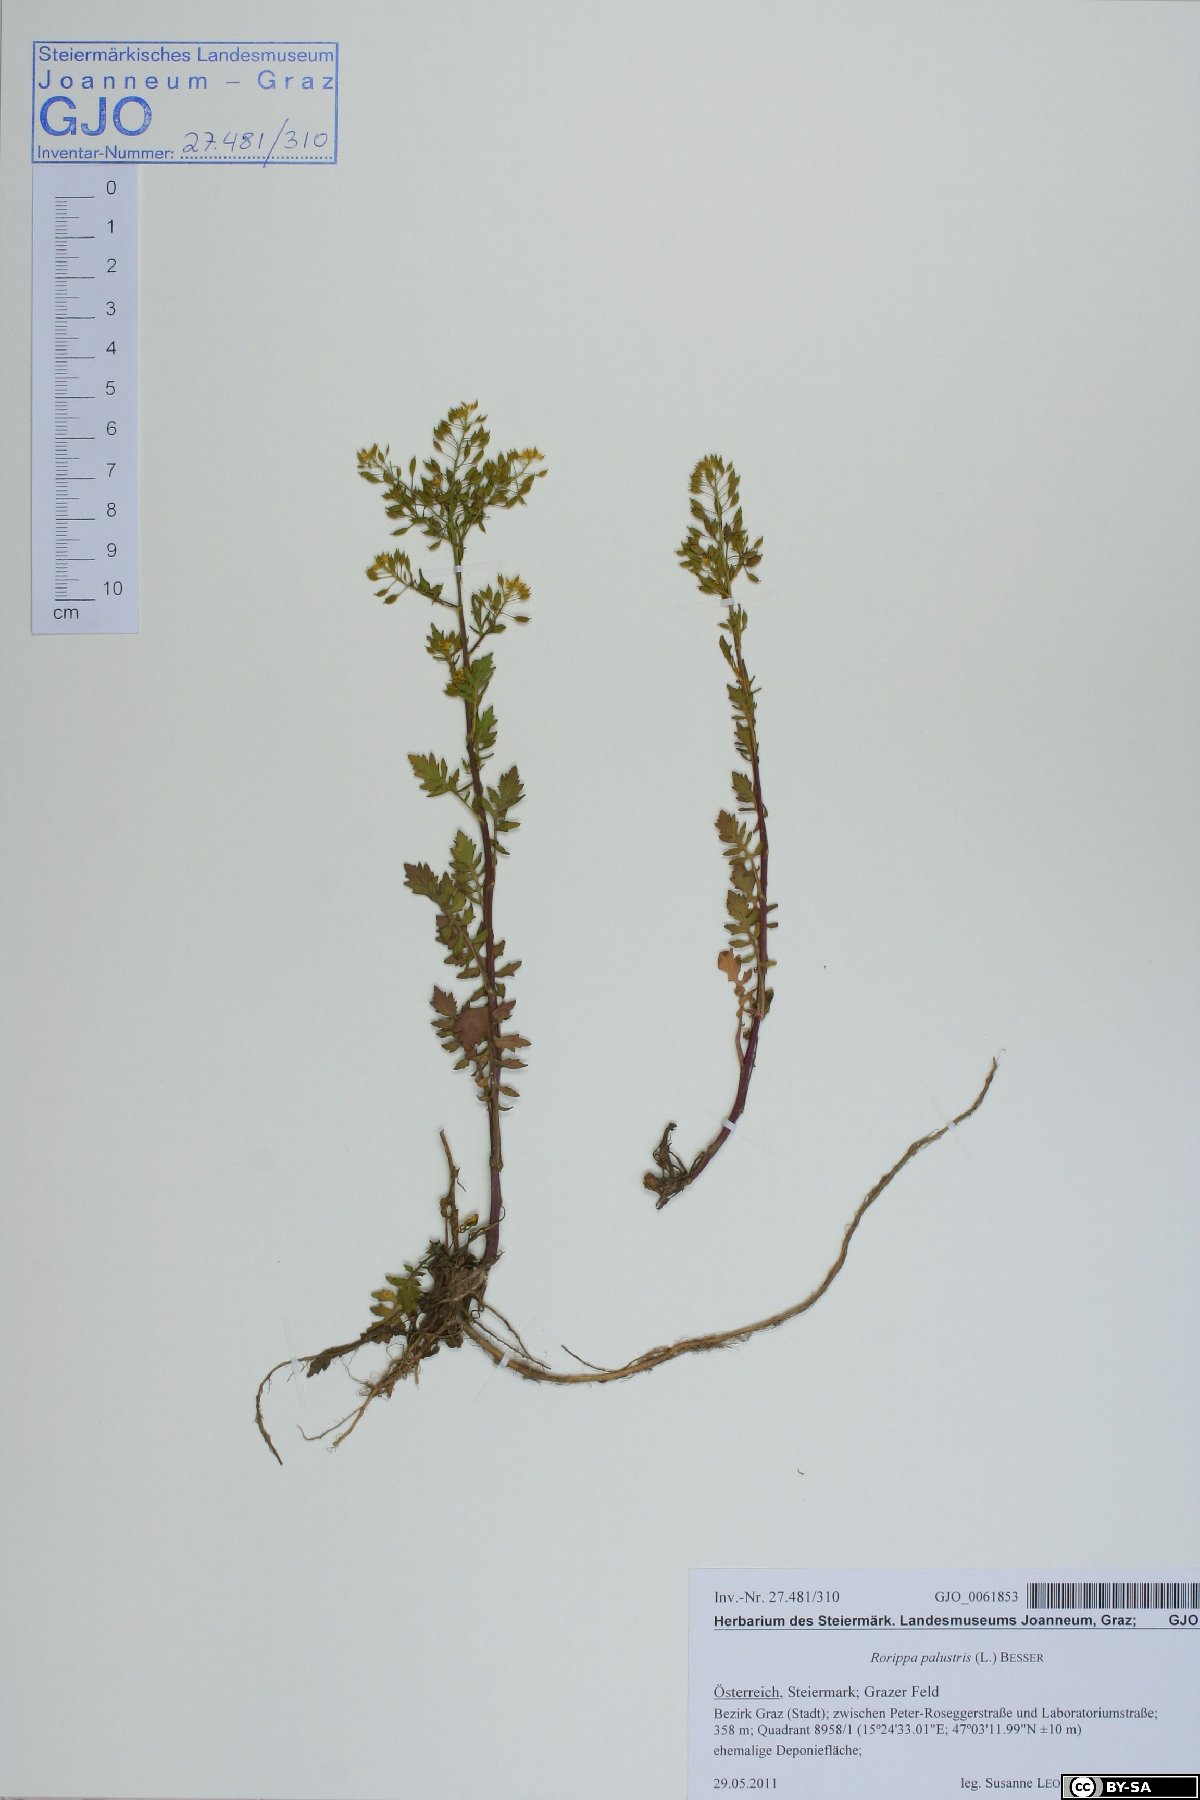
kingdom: Plantae
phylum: Tracheophyta
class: Magnoliopsida
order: Brassicales
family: Brassicaceae
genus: Rorippa
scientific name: Rorippa palustris
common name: Marsh yellow-cress
